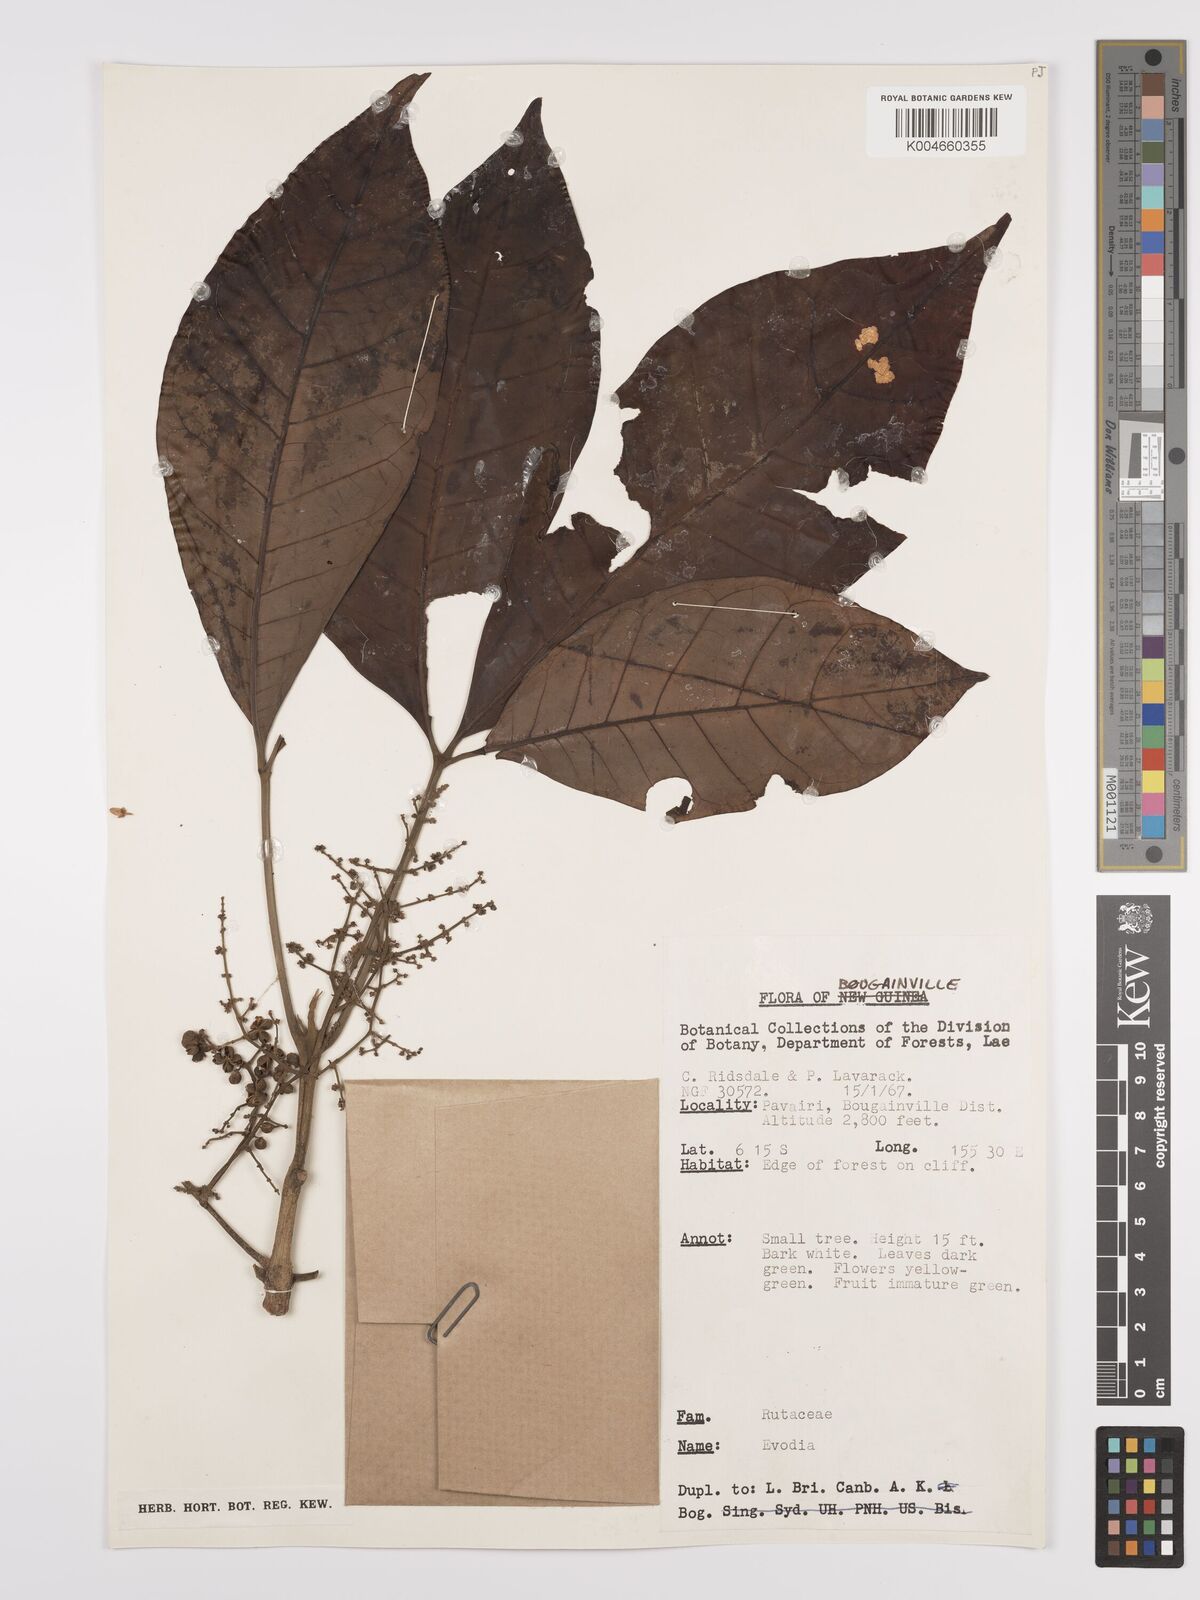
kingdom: Plantae
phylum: Tracheophyta
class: Magnoliopsida
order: Sapindales
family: Rutaceae
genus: Euodia
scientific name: Euodia
